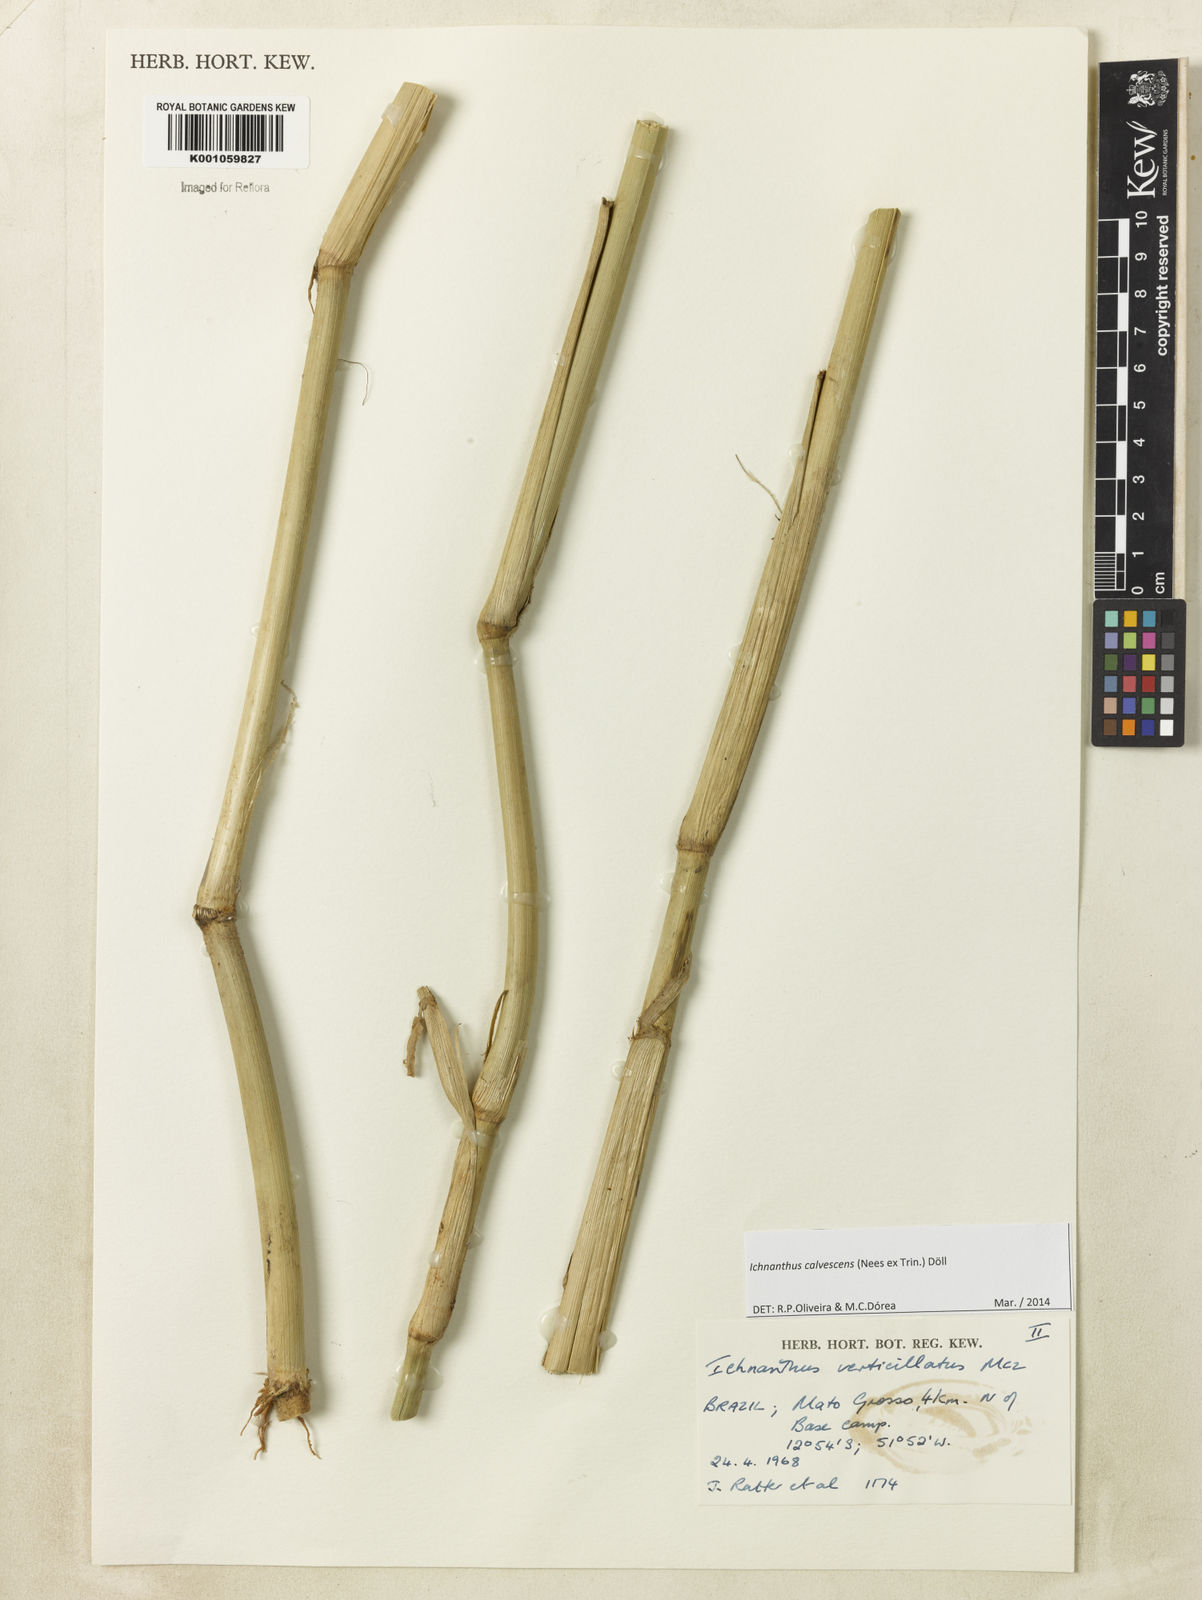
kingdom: Plantae
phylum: Tracheophyta
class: Liliopsida
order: Poales
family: Poaceae
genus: Ichnanthus
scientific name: Ichnanthus
